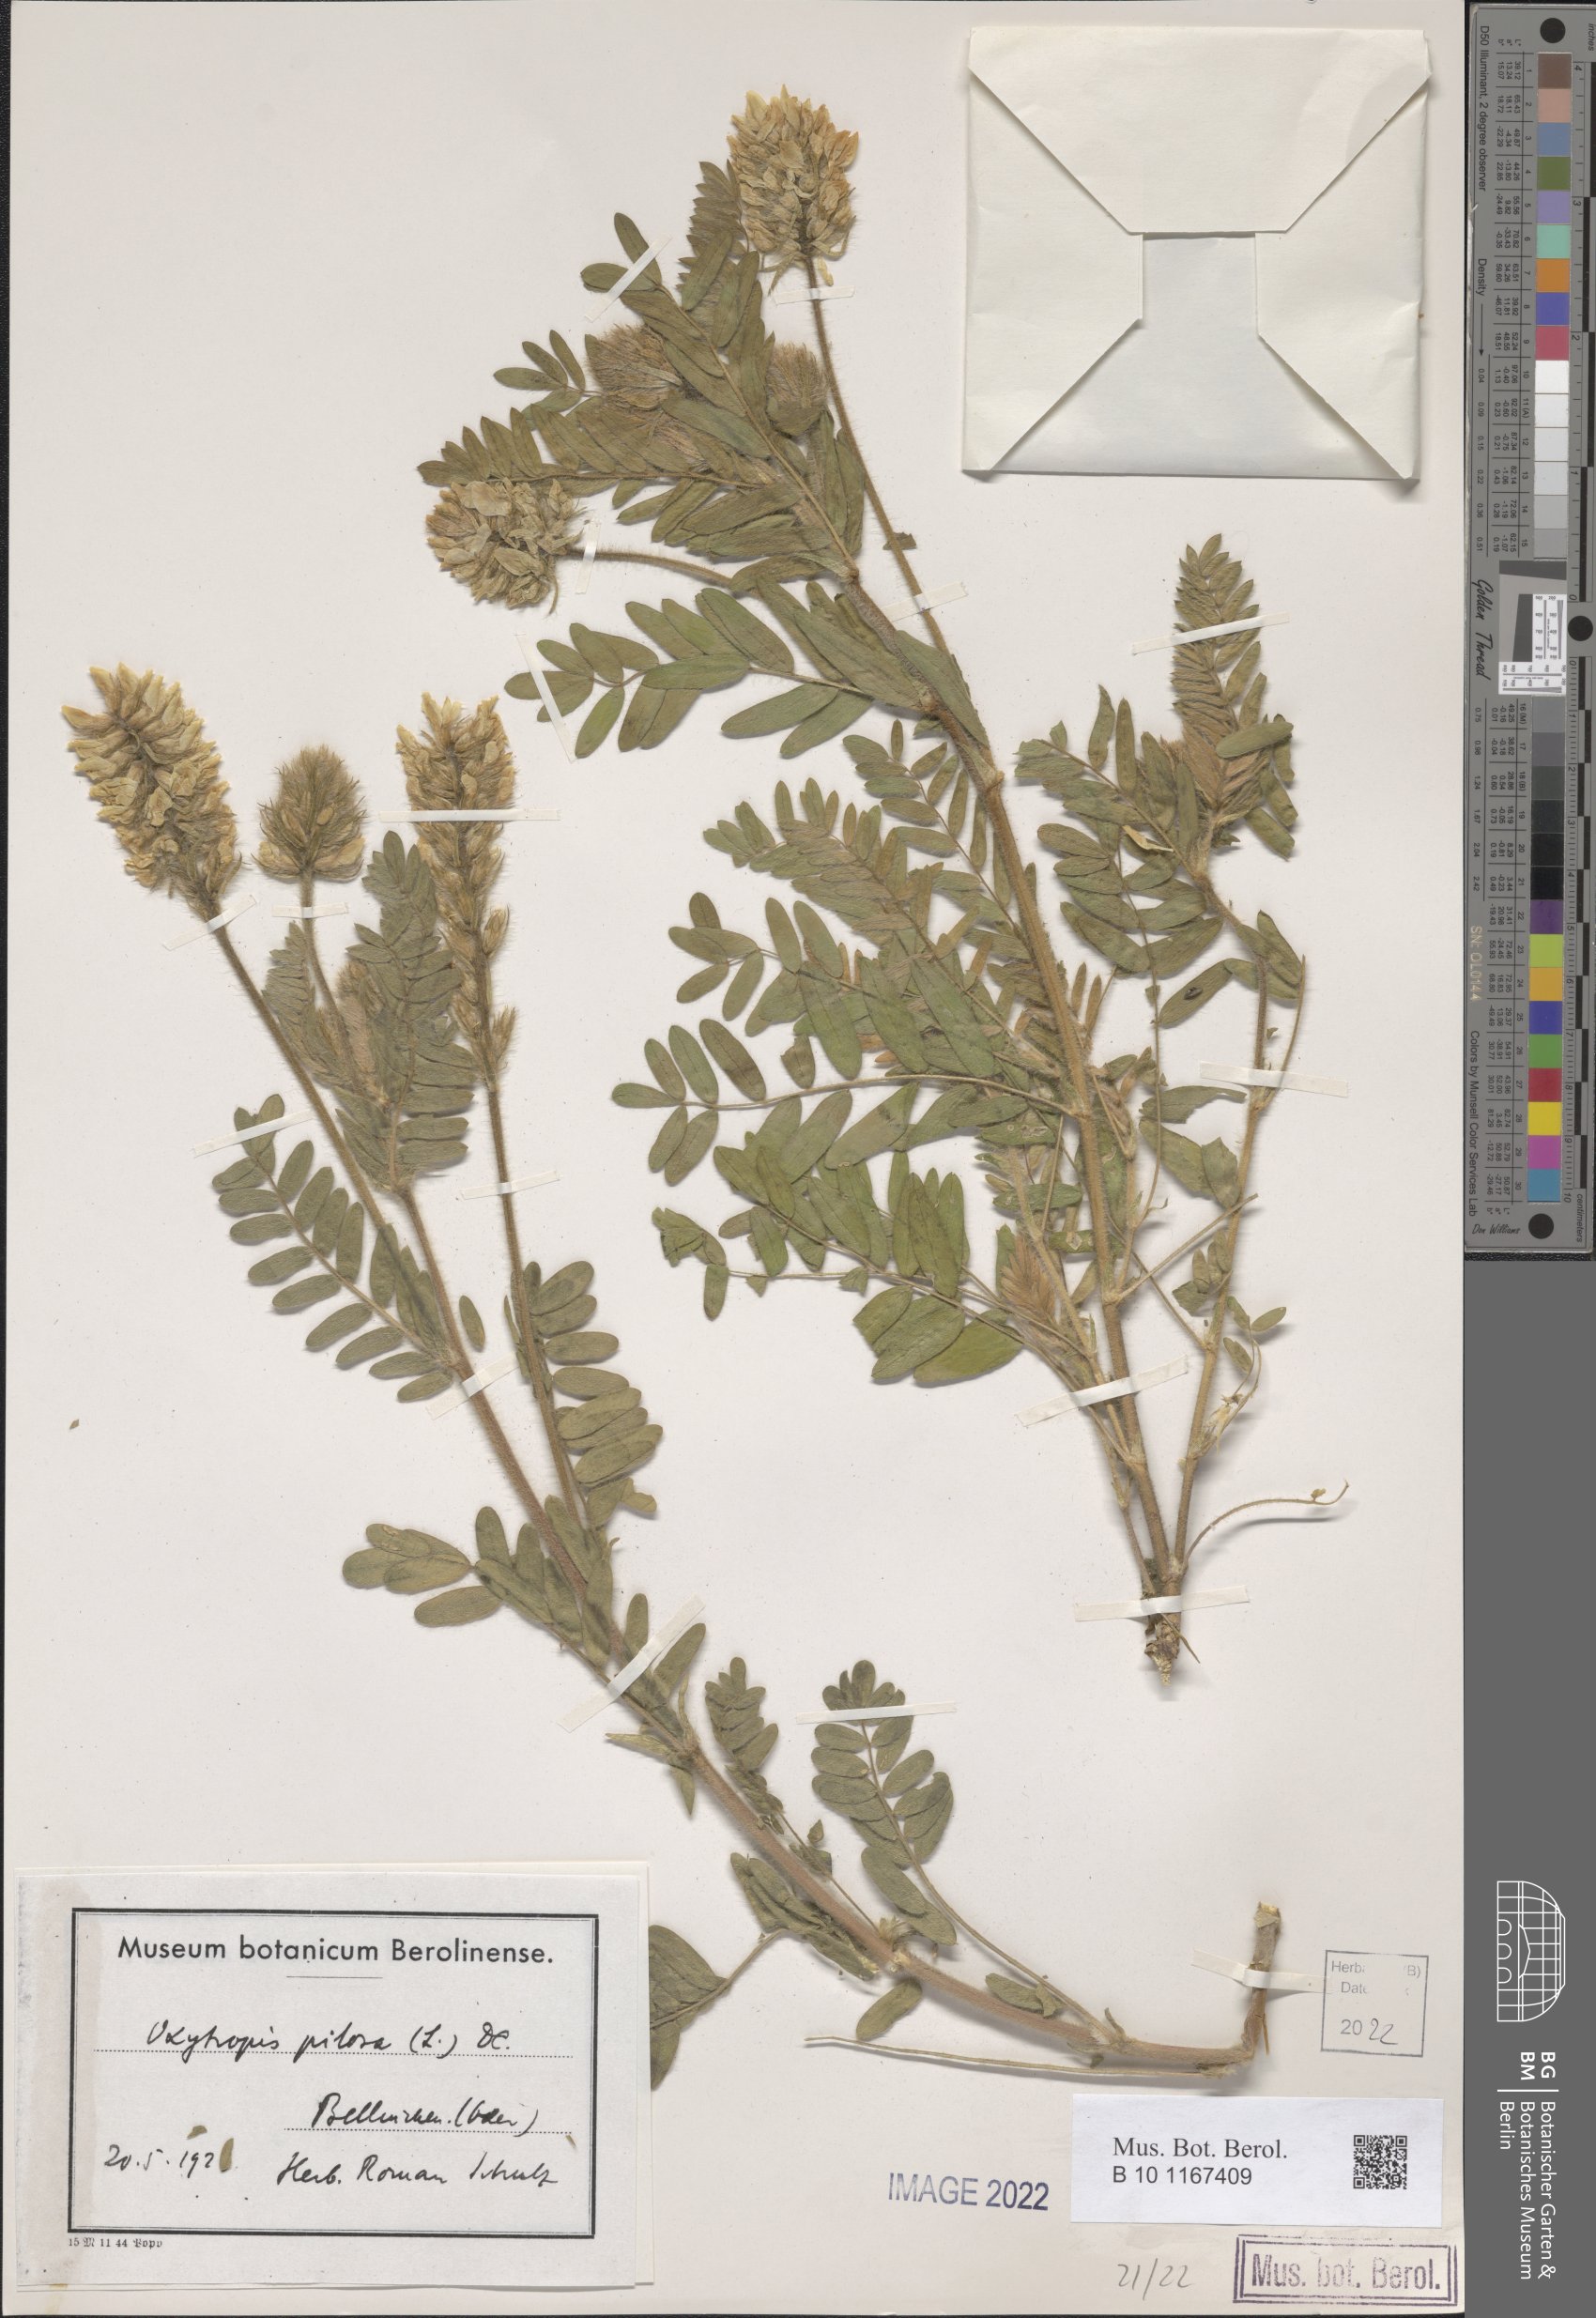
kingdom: Plantae
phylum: Tracheophyta
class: Magnoliopsida
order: Fabales
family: Fabaceae
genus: Oxytropis
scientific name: Oxytropis pilosa
